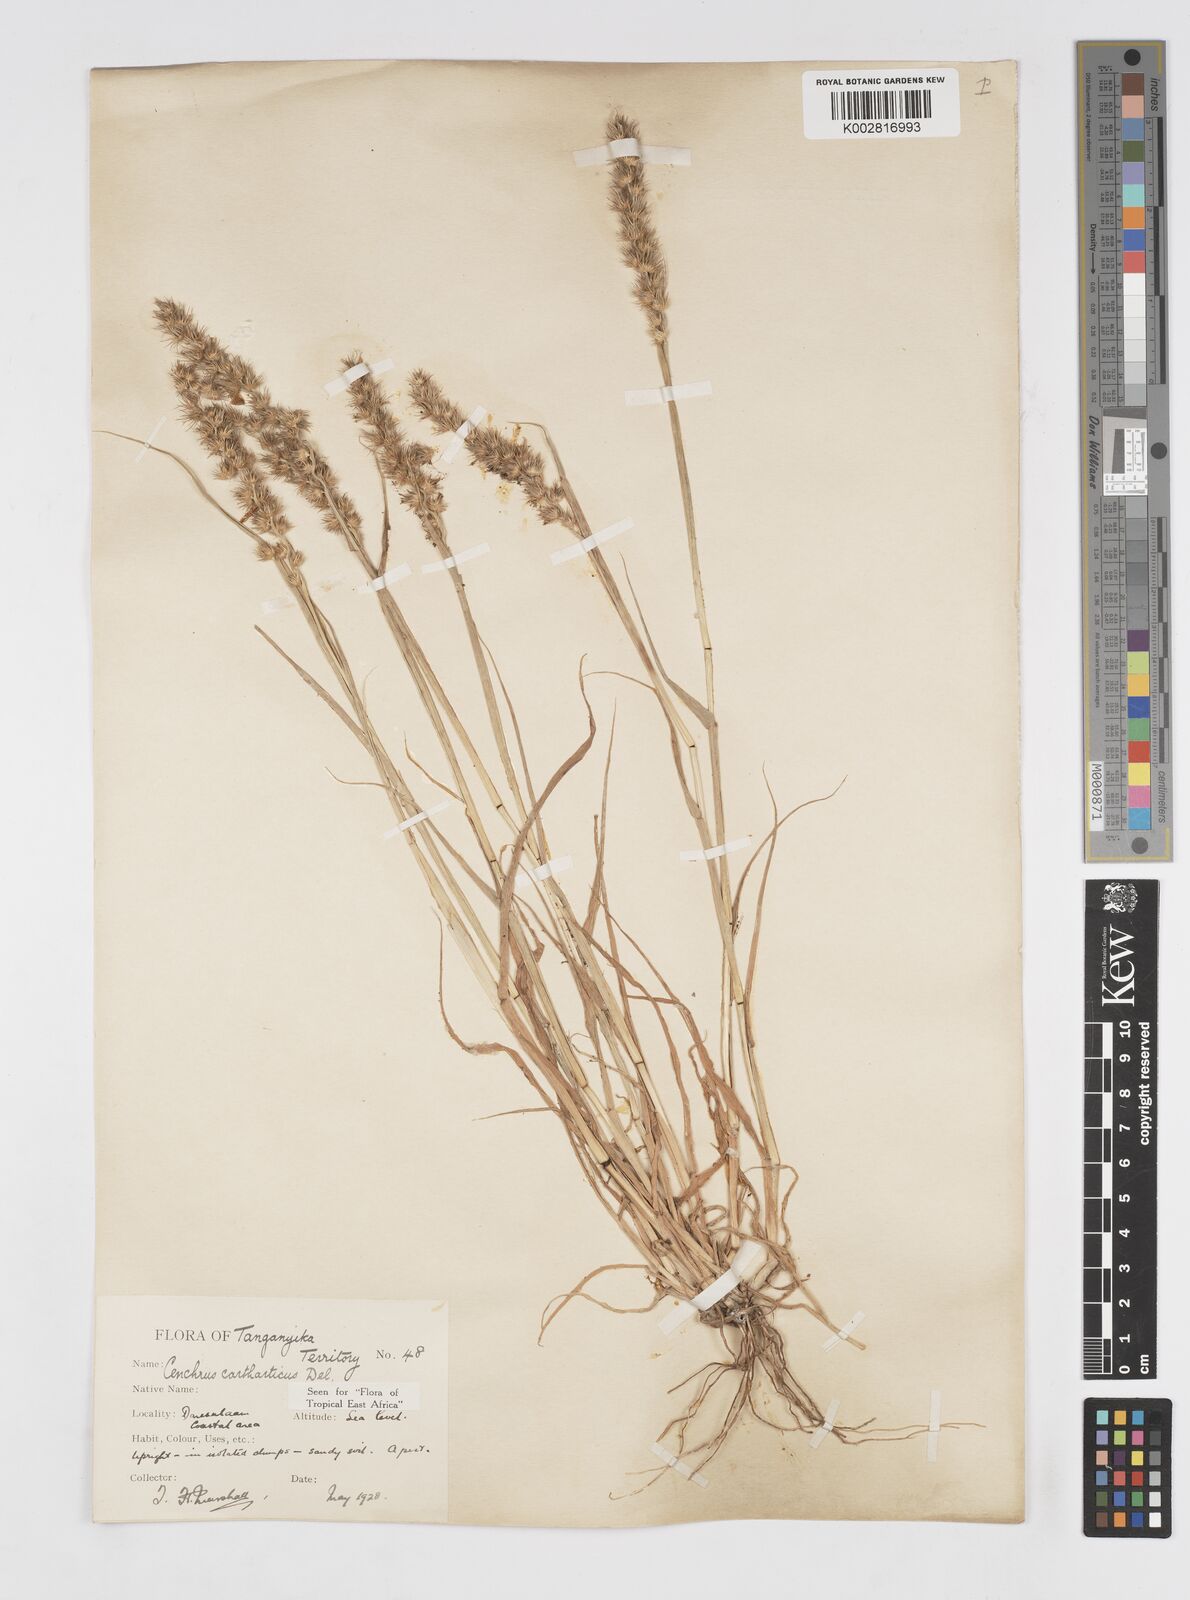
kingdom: Plantae
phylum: Tracheophyta
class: Liliopsida
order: Poales
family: Poaceae
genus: Cenchrus
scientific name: Cenchrus biflorus
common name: Indian sandbur
